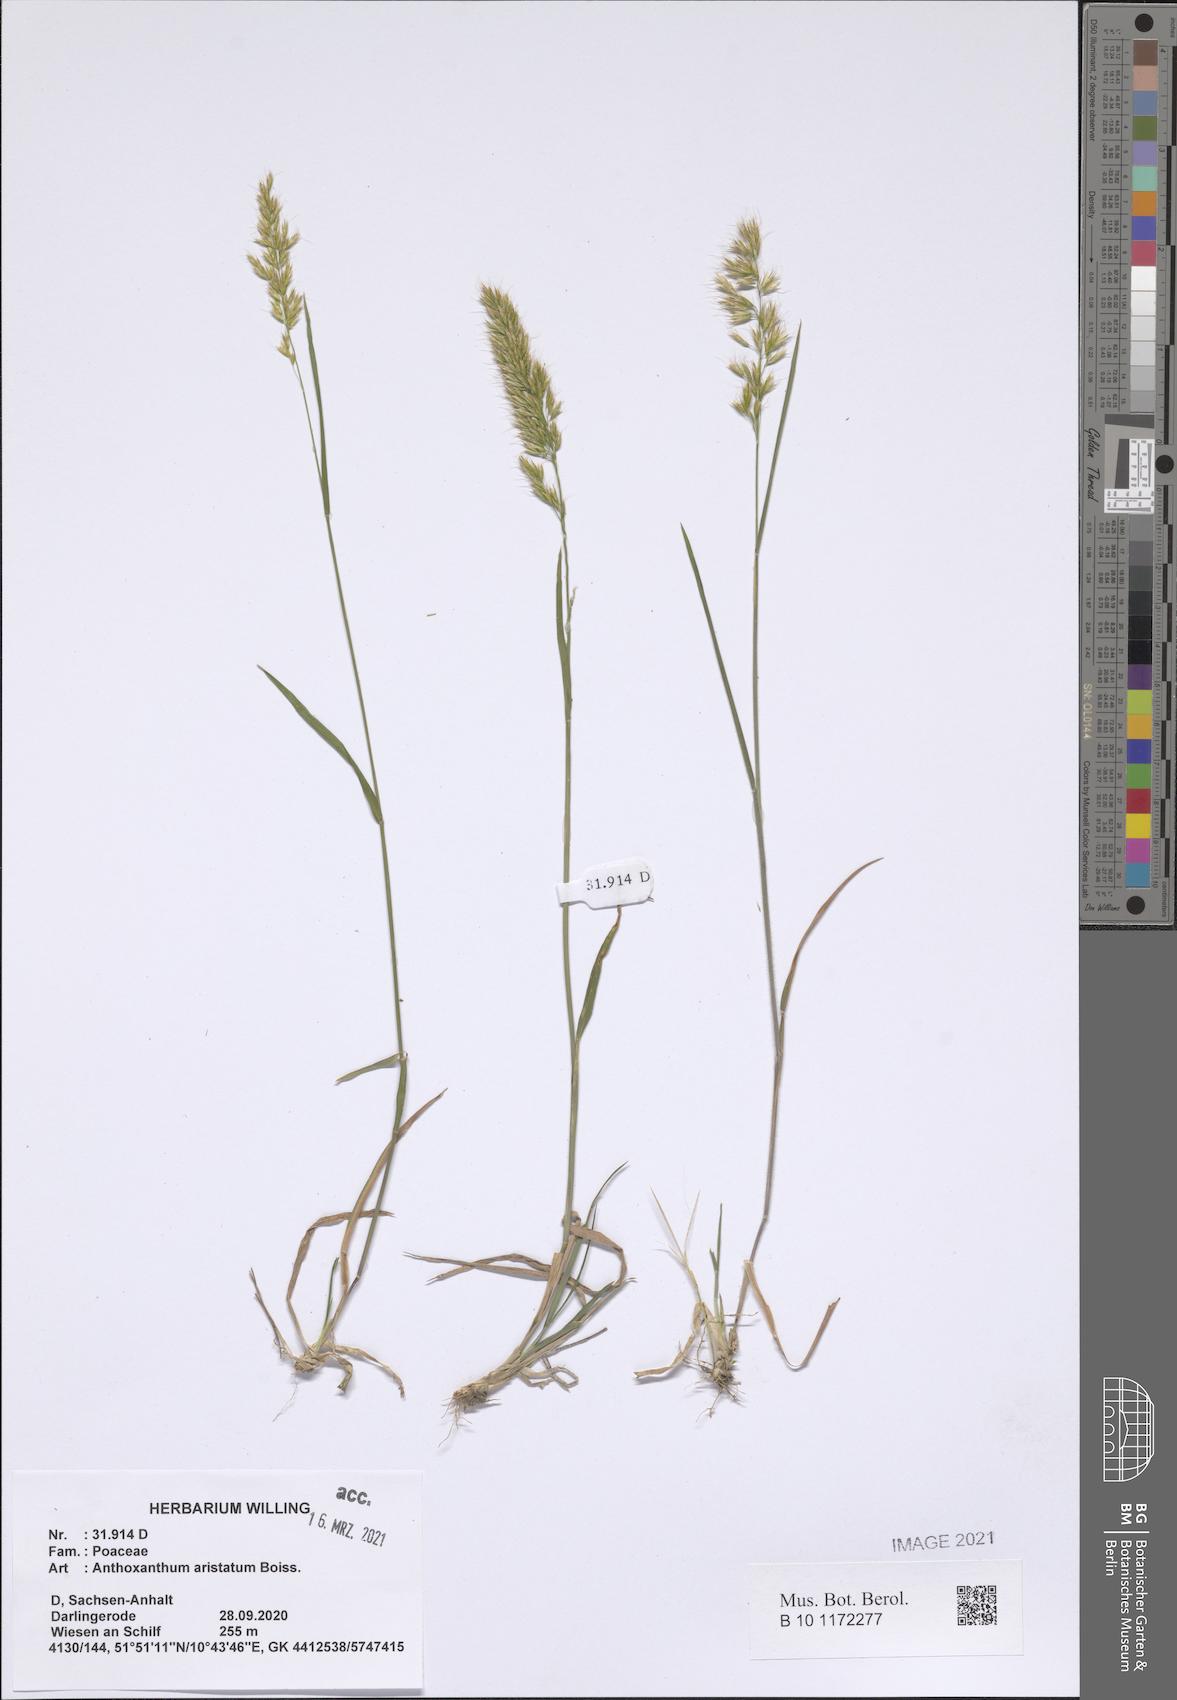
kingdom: Plantae
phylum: Tracheophyta
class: Liliopsida
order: Poales
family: Poaceae
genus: Anthoxanthum
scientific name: Anthoxanthum aristatum
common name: Annual vernal-grass
